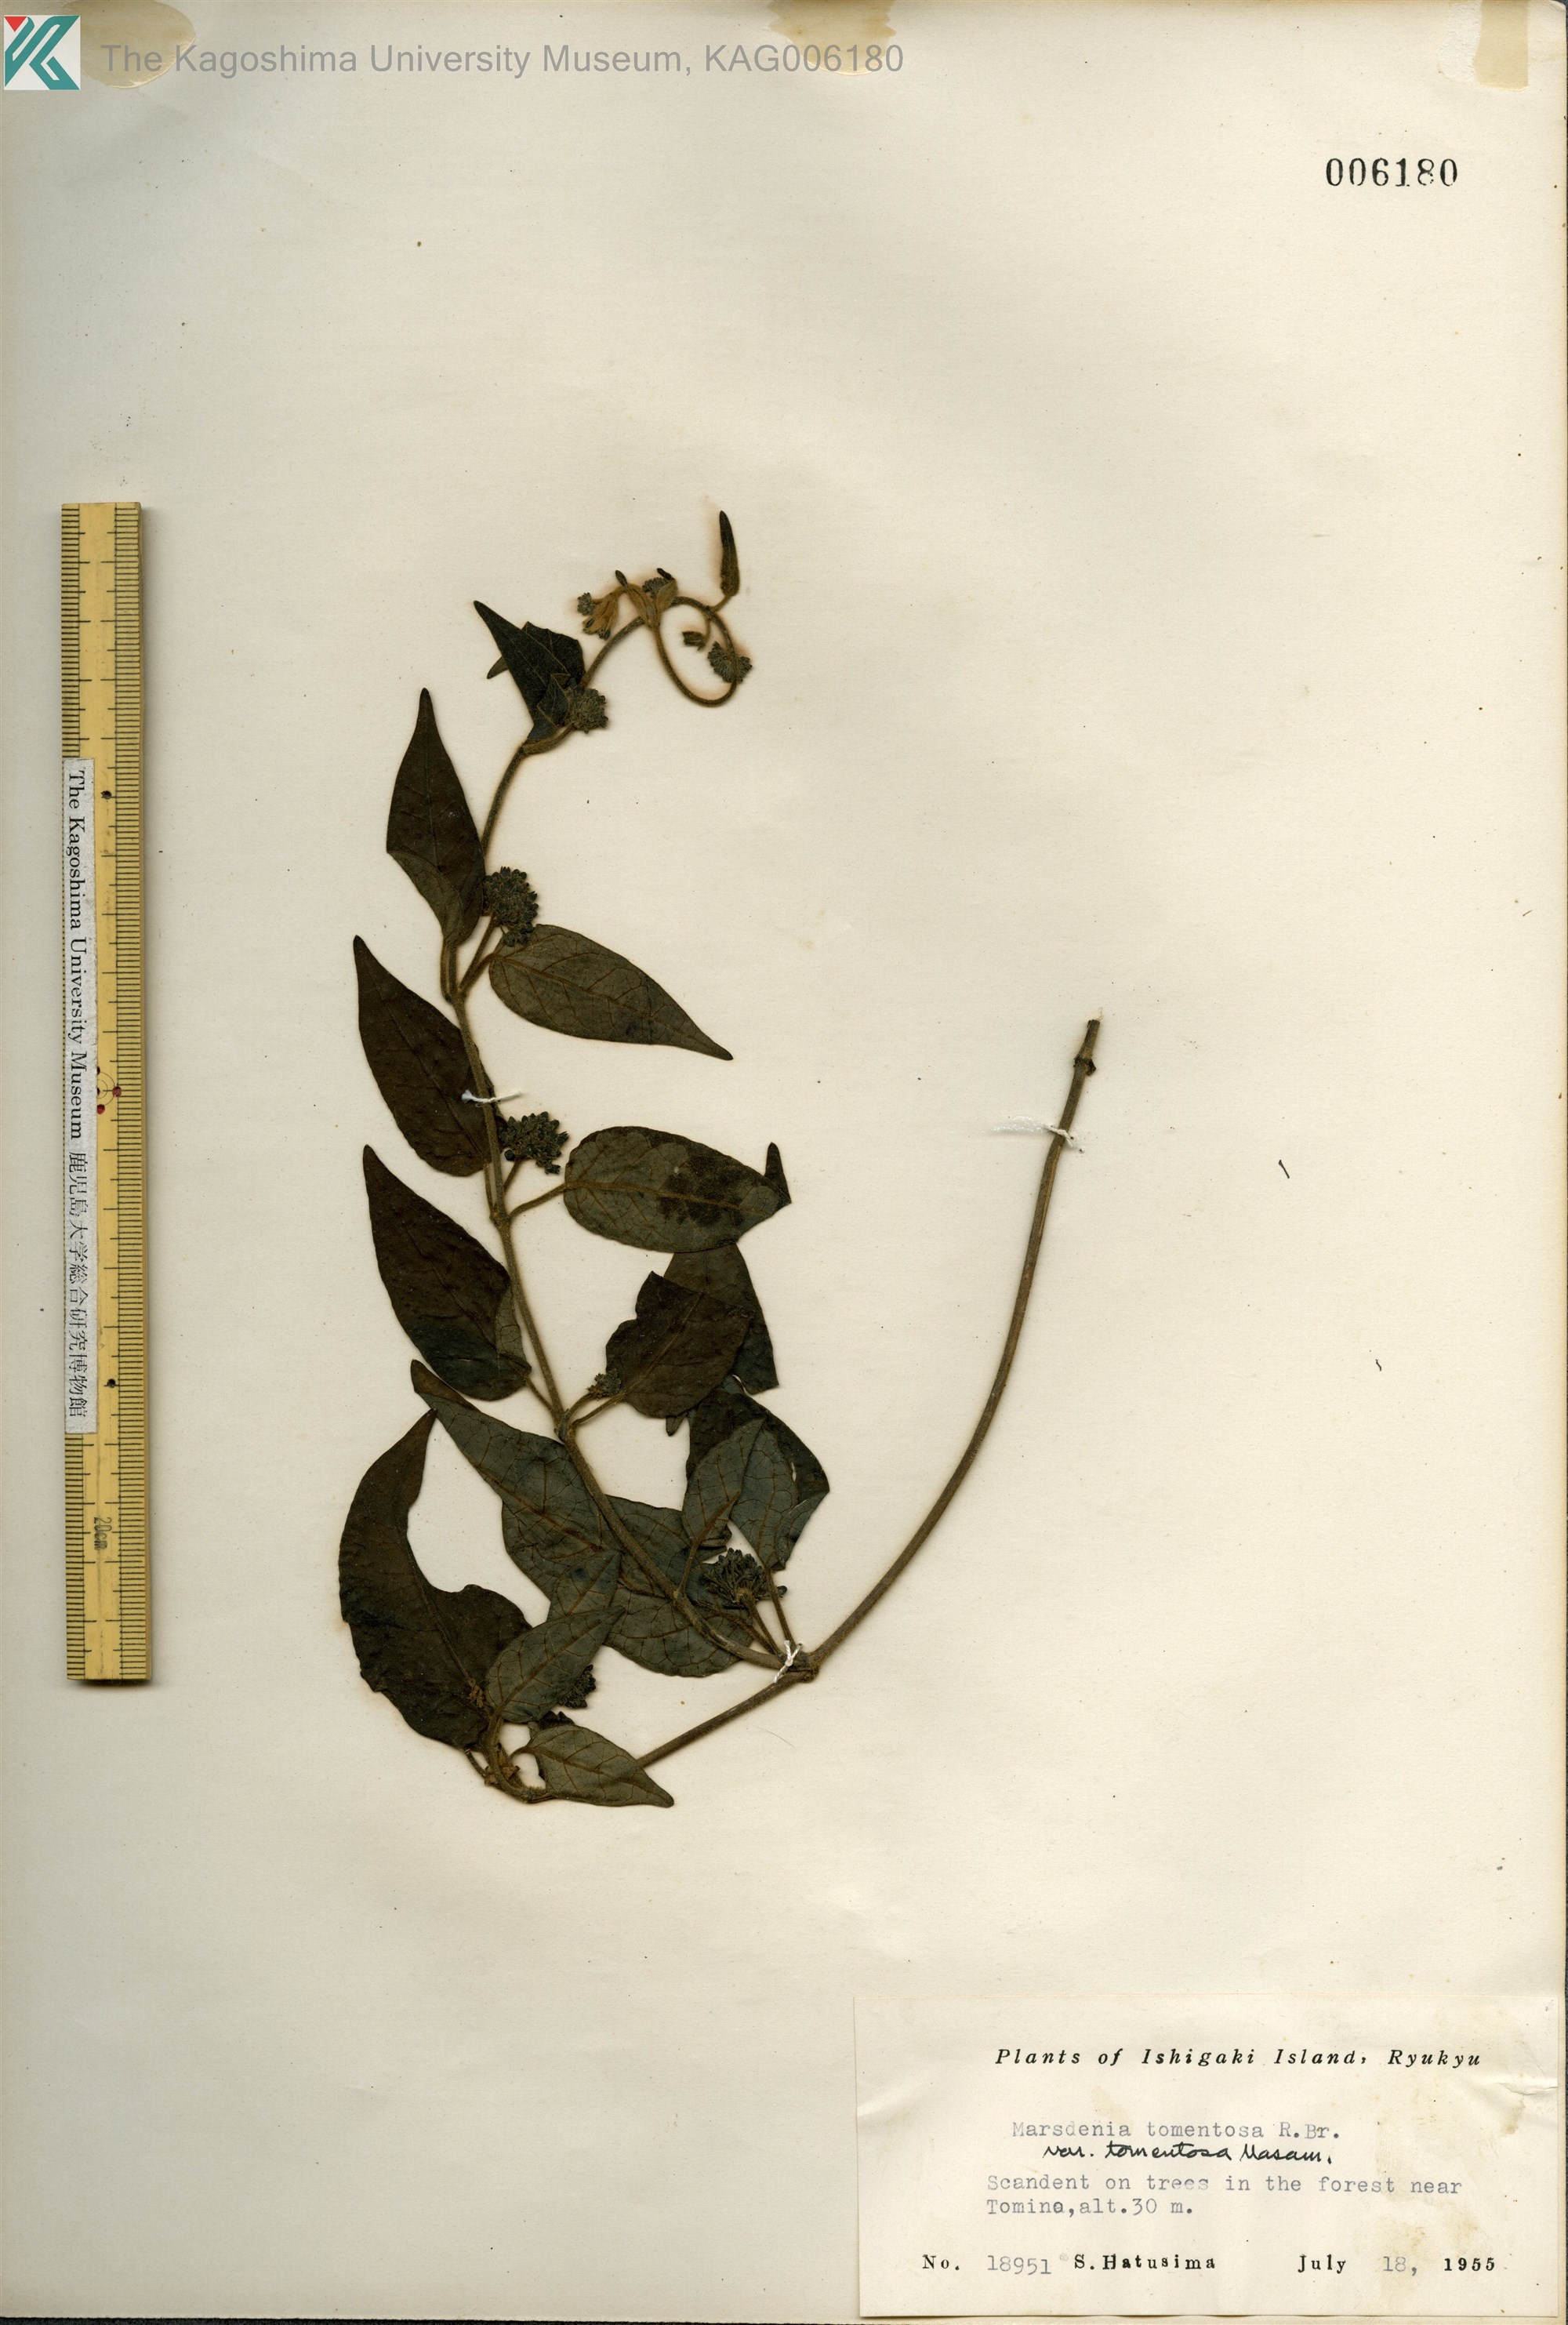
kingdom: Plantae
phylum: Tracheophyta
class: Magnoliopsida
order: Gentianales
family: Apocynaceae
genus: Marsdenia
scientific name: Marsdenia tinctoria
